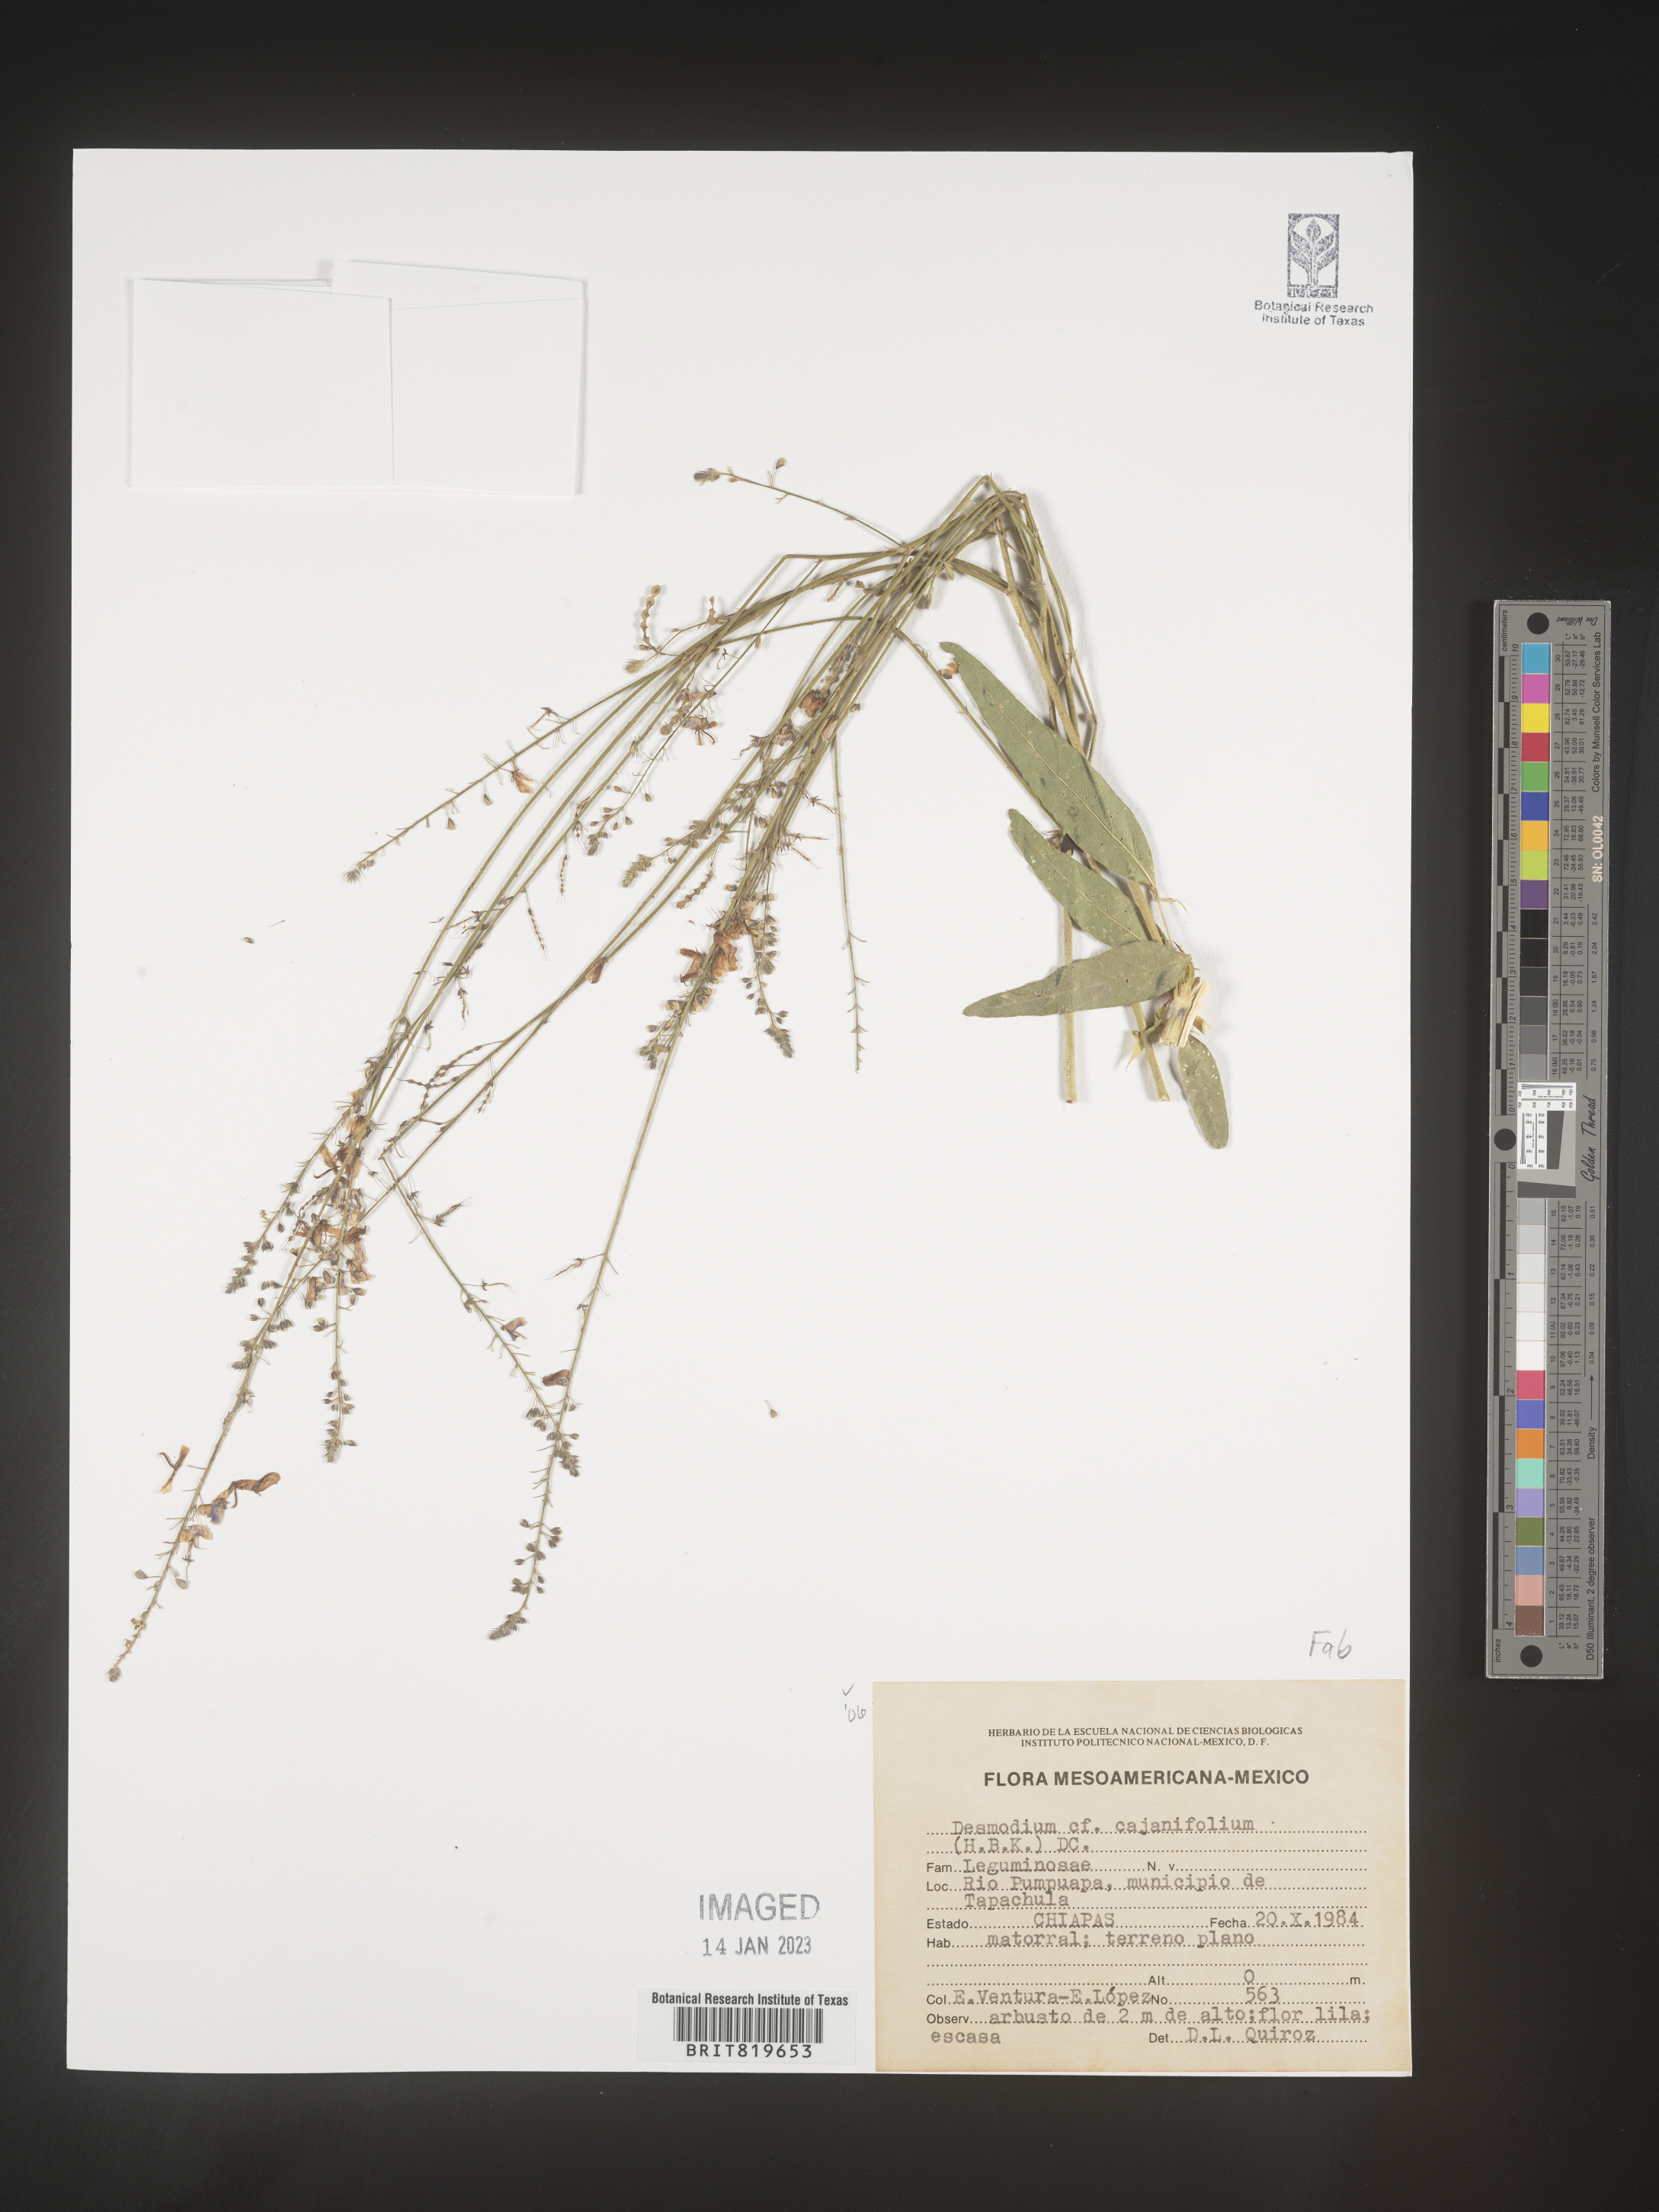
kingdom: Plantae
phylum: Tracheophyta
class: Magnoliopsida
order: Fabales
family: Fabaceae
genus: Desmodium
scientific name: Desmodium
